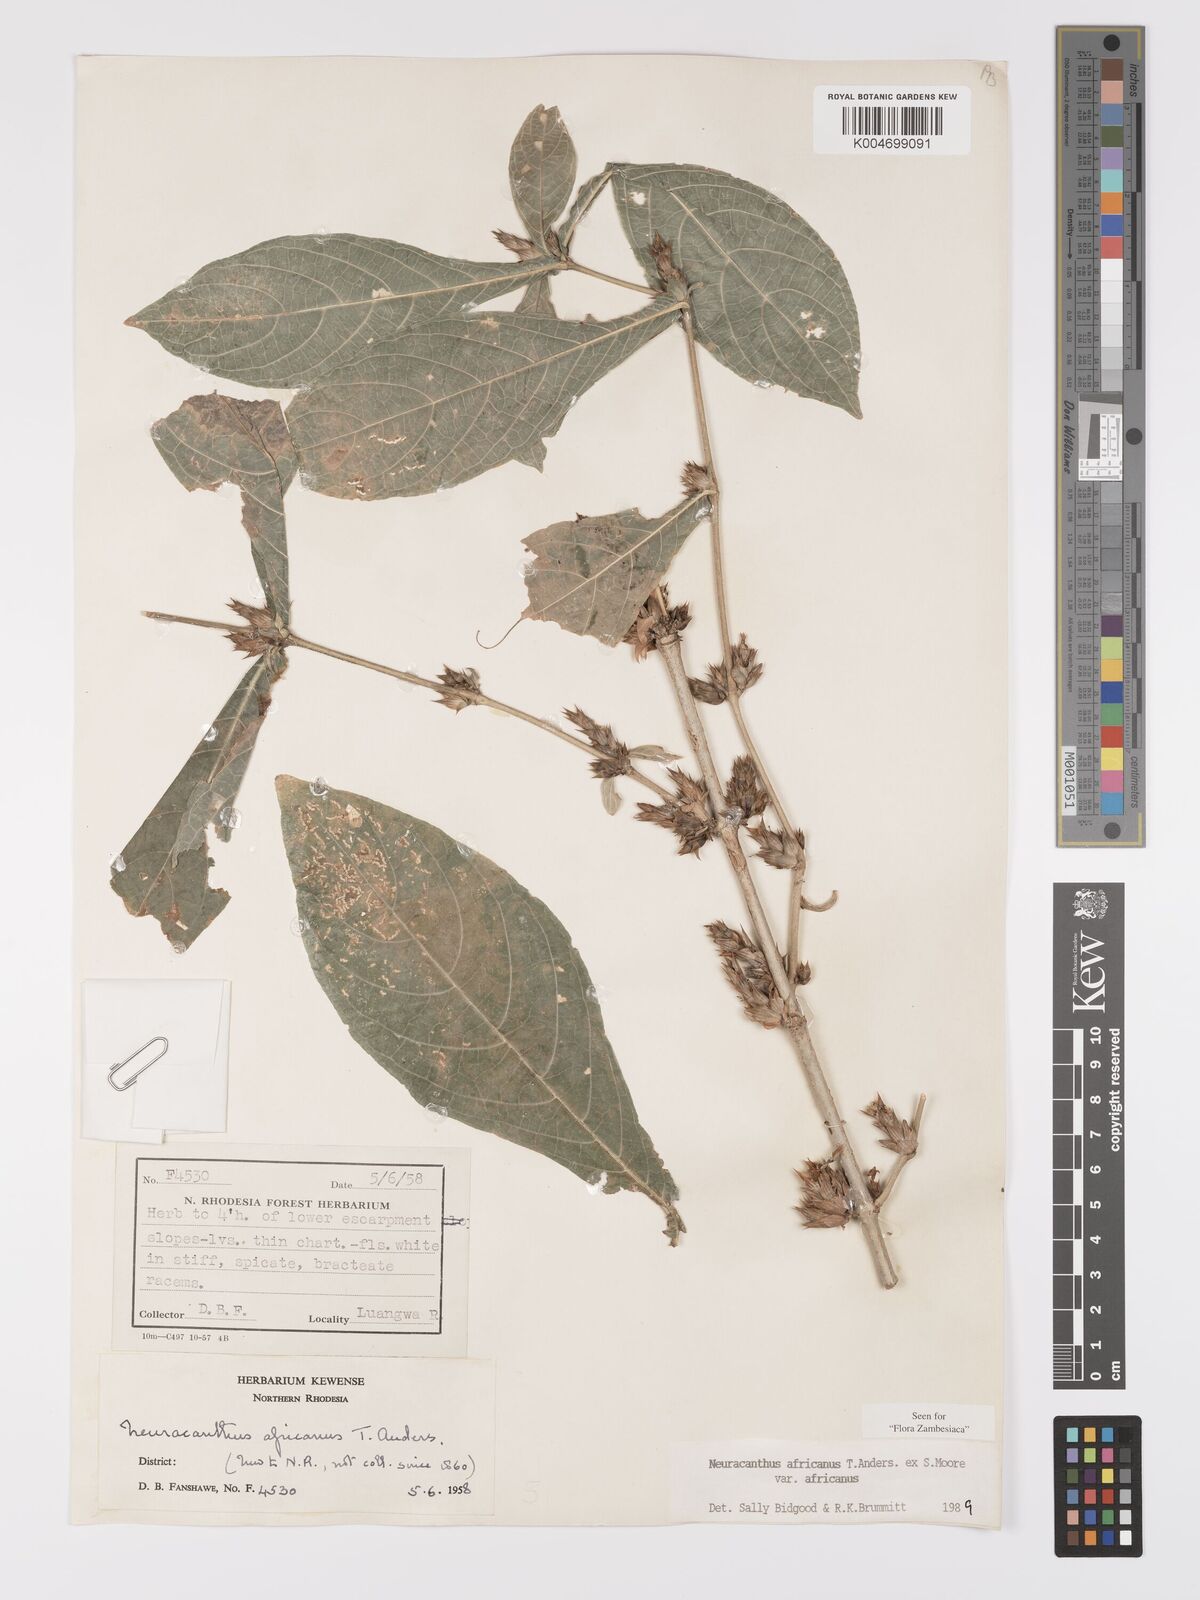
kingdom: Plantae
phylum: Tracheophyta
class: Magnoliopsida
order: Lamiales
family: Acanthaceae
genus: Neuracanthus
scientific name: Neuracanthus africanus
